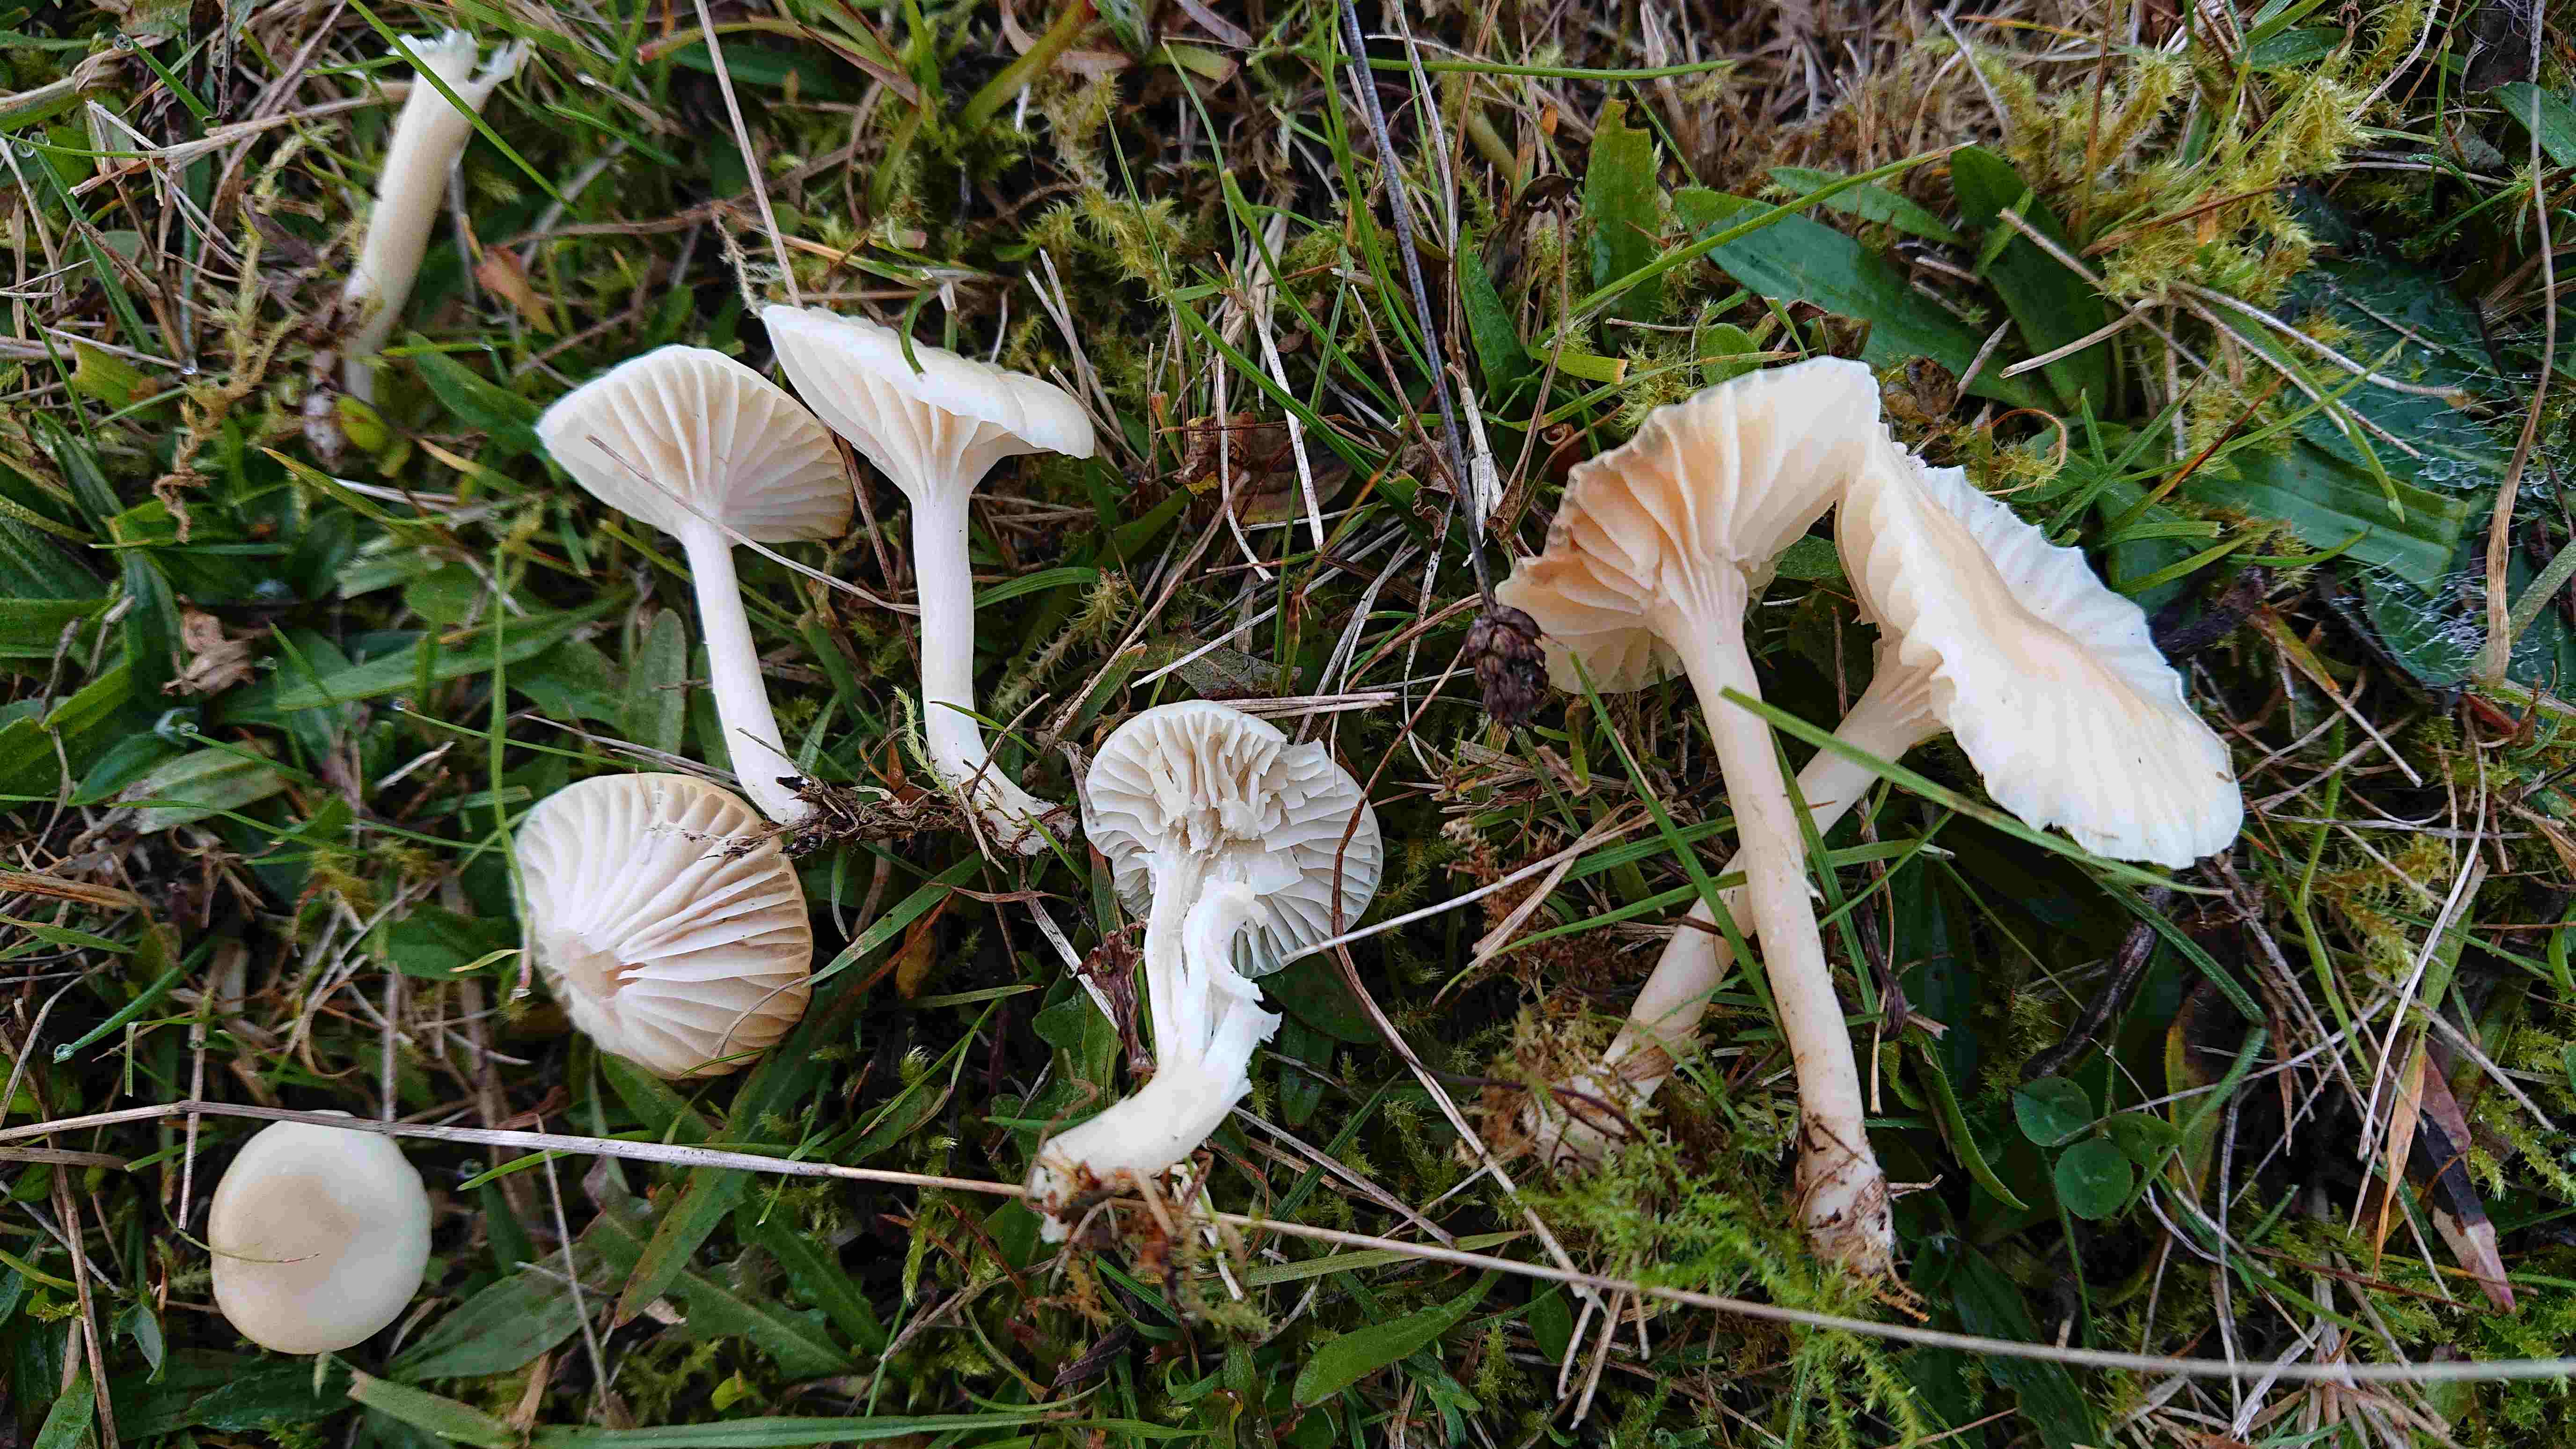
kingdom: Fungi
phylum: Basidiomycota
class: Agaricomycetes
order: Agaricales
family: Hygrophoraceae
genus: Cuphophyllus
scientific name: Cuphophyllus
